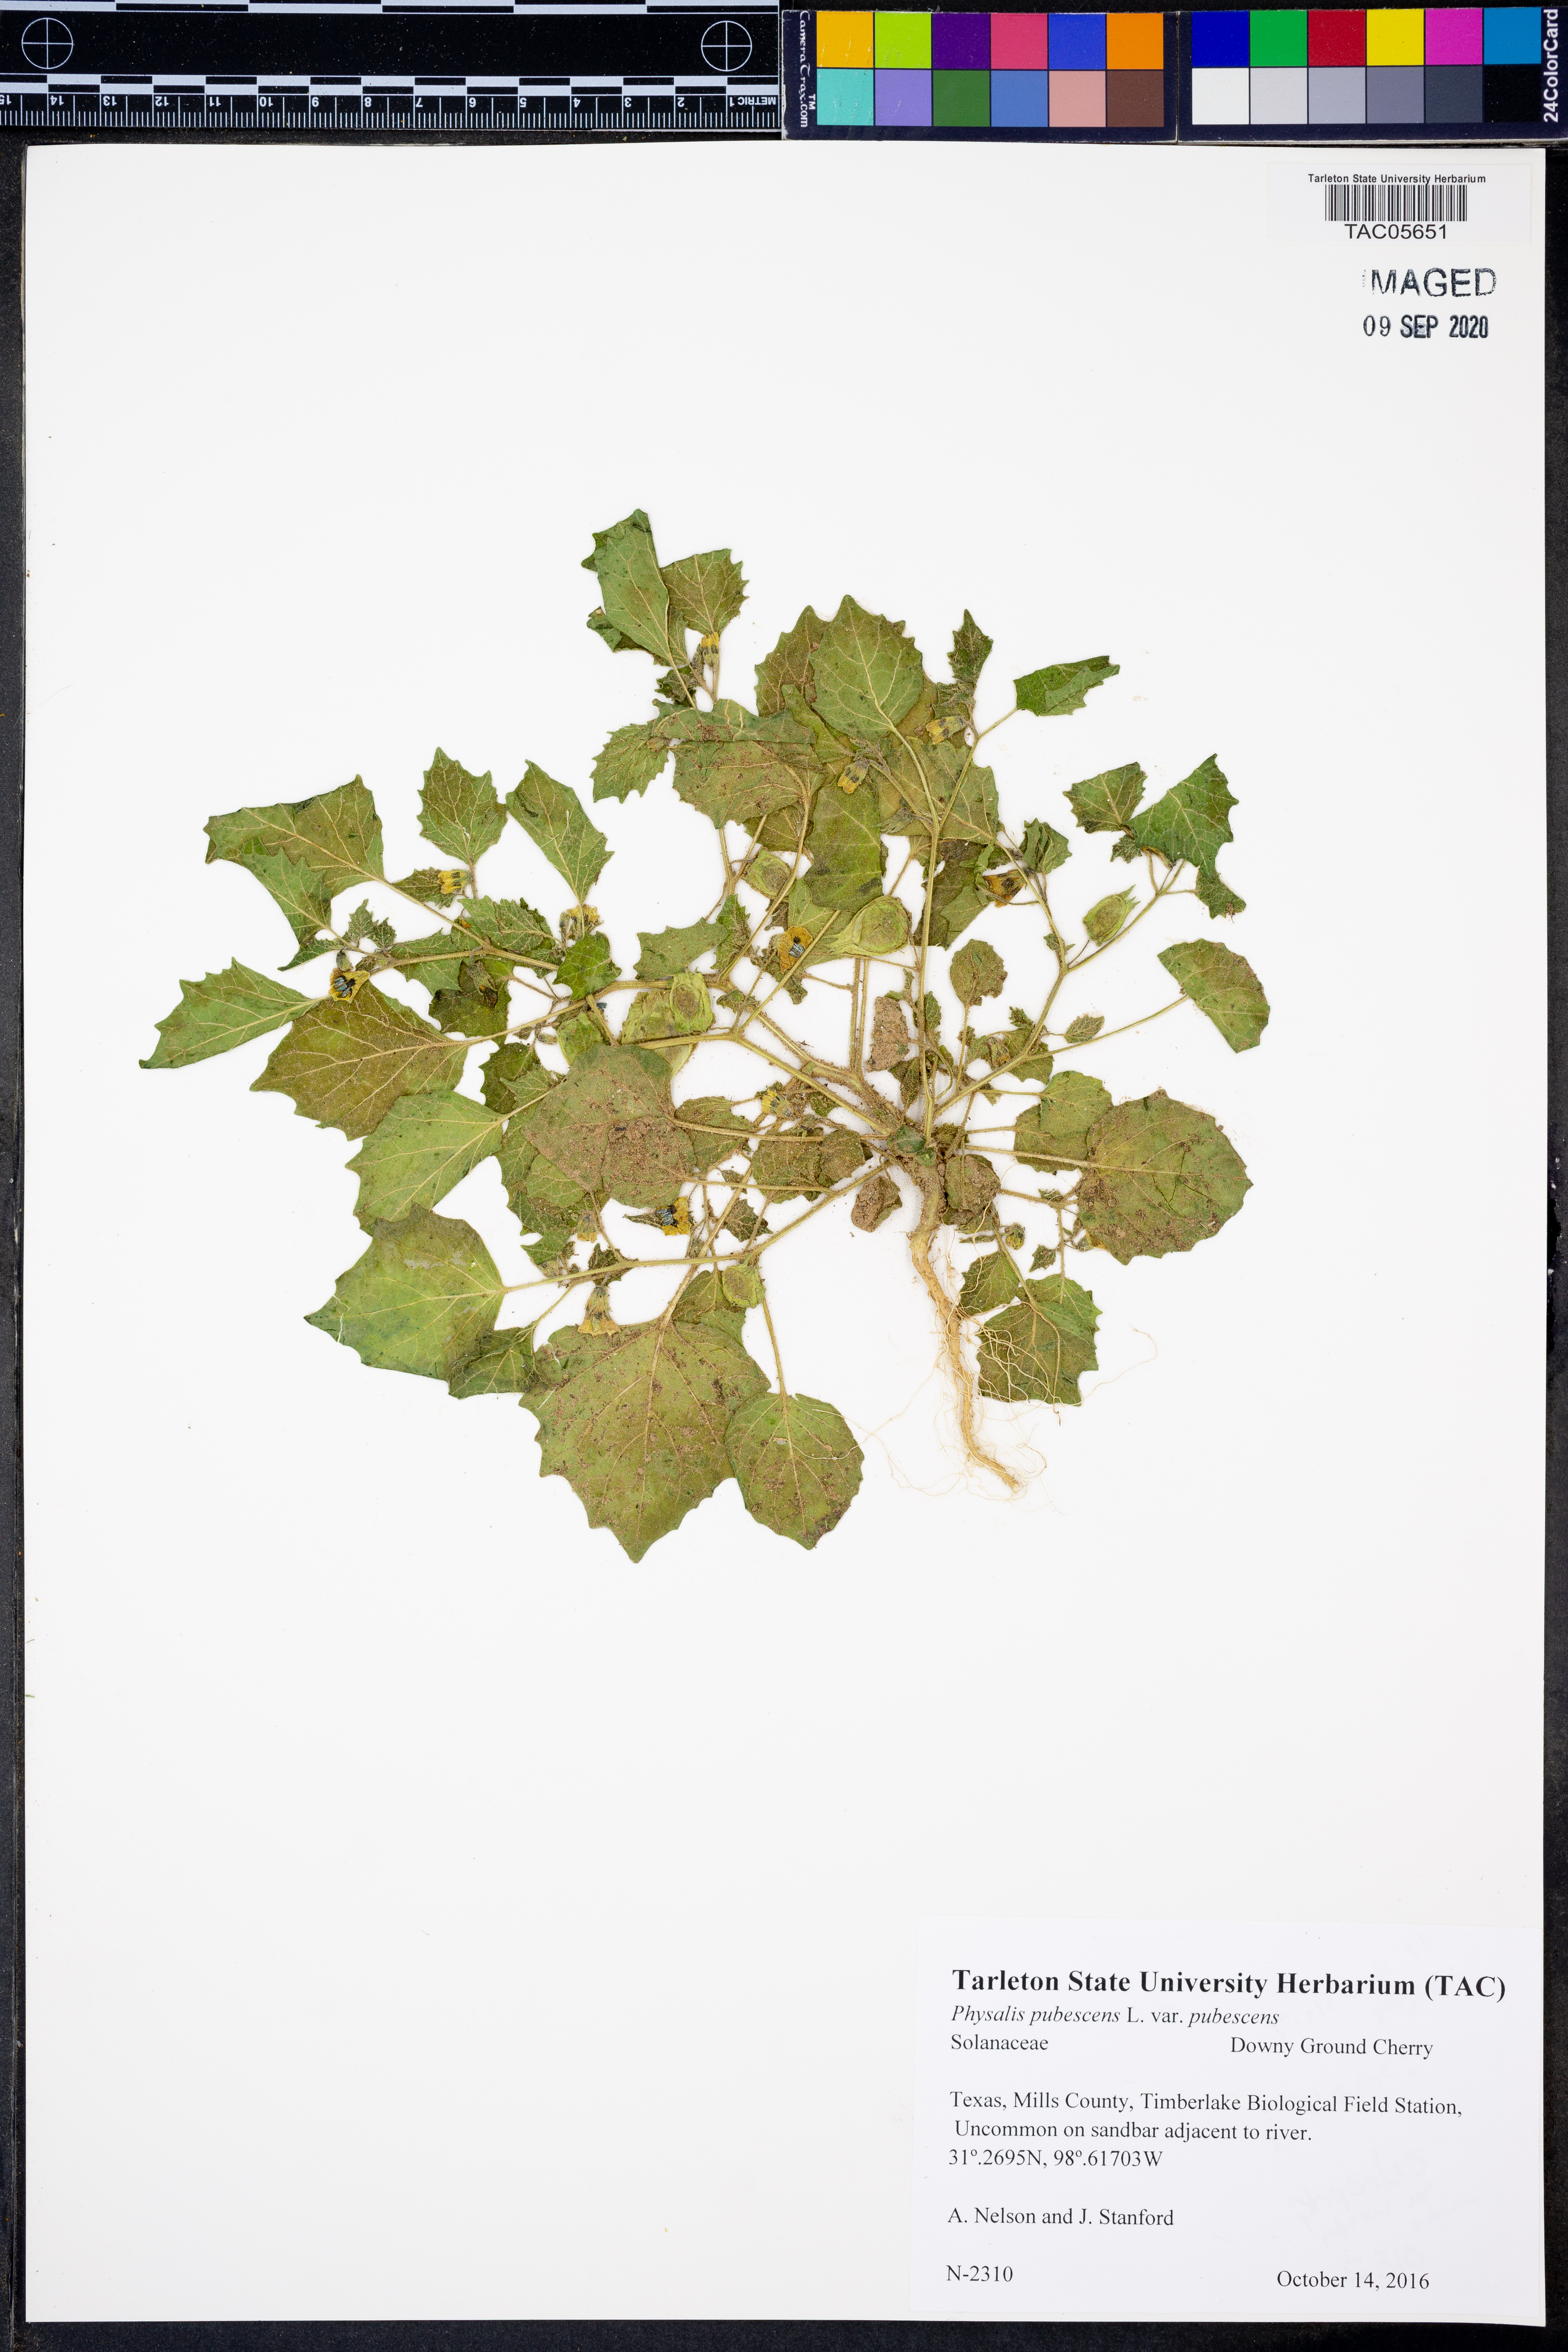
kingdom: Plantae
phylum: Tracheophyta
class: Magnoliopsida
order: Solanales
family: Solanaceae
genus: Physalis
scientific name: Physalis pubescens
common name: Downy ground-cherry
